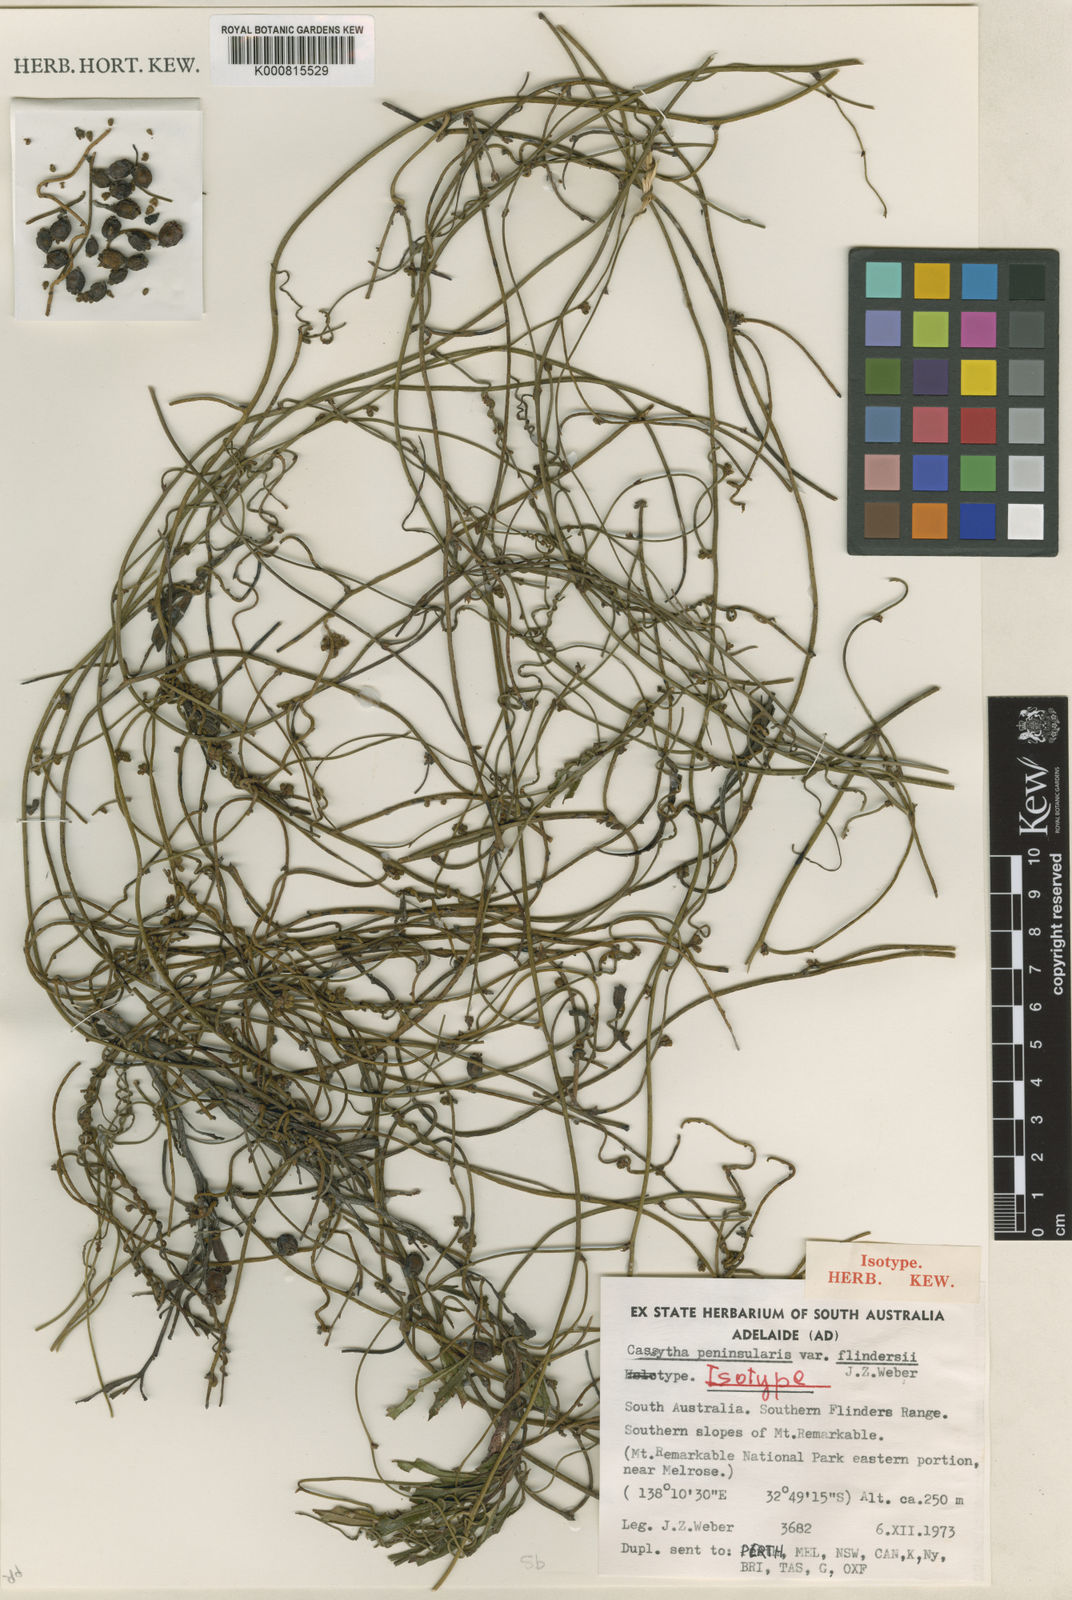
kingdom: Plantae
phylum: Tracheophyta
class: Magnoliopsida
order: Laurales
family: Lauraceae
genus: Cassytha
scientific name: Cassytha flindersii
